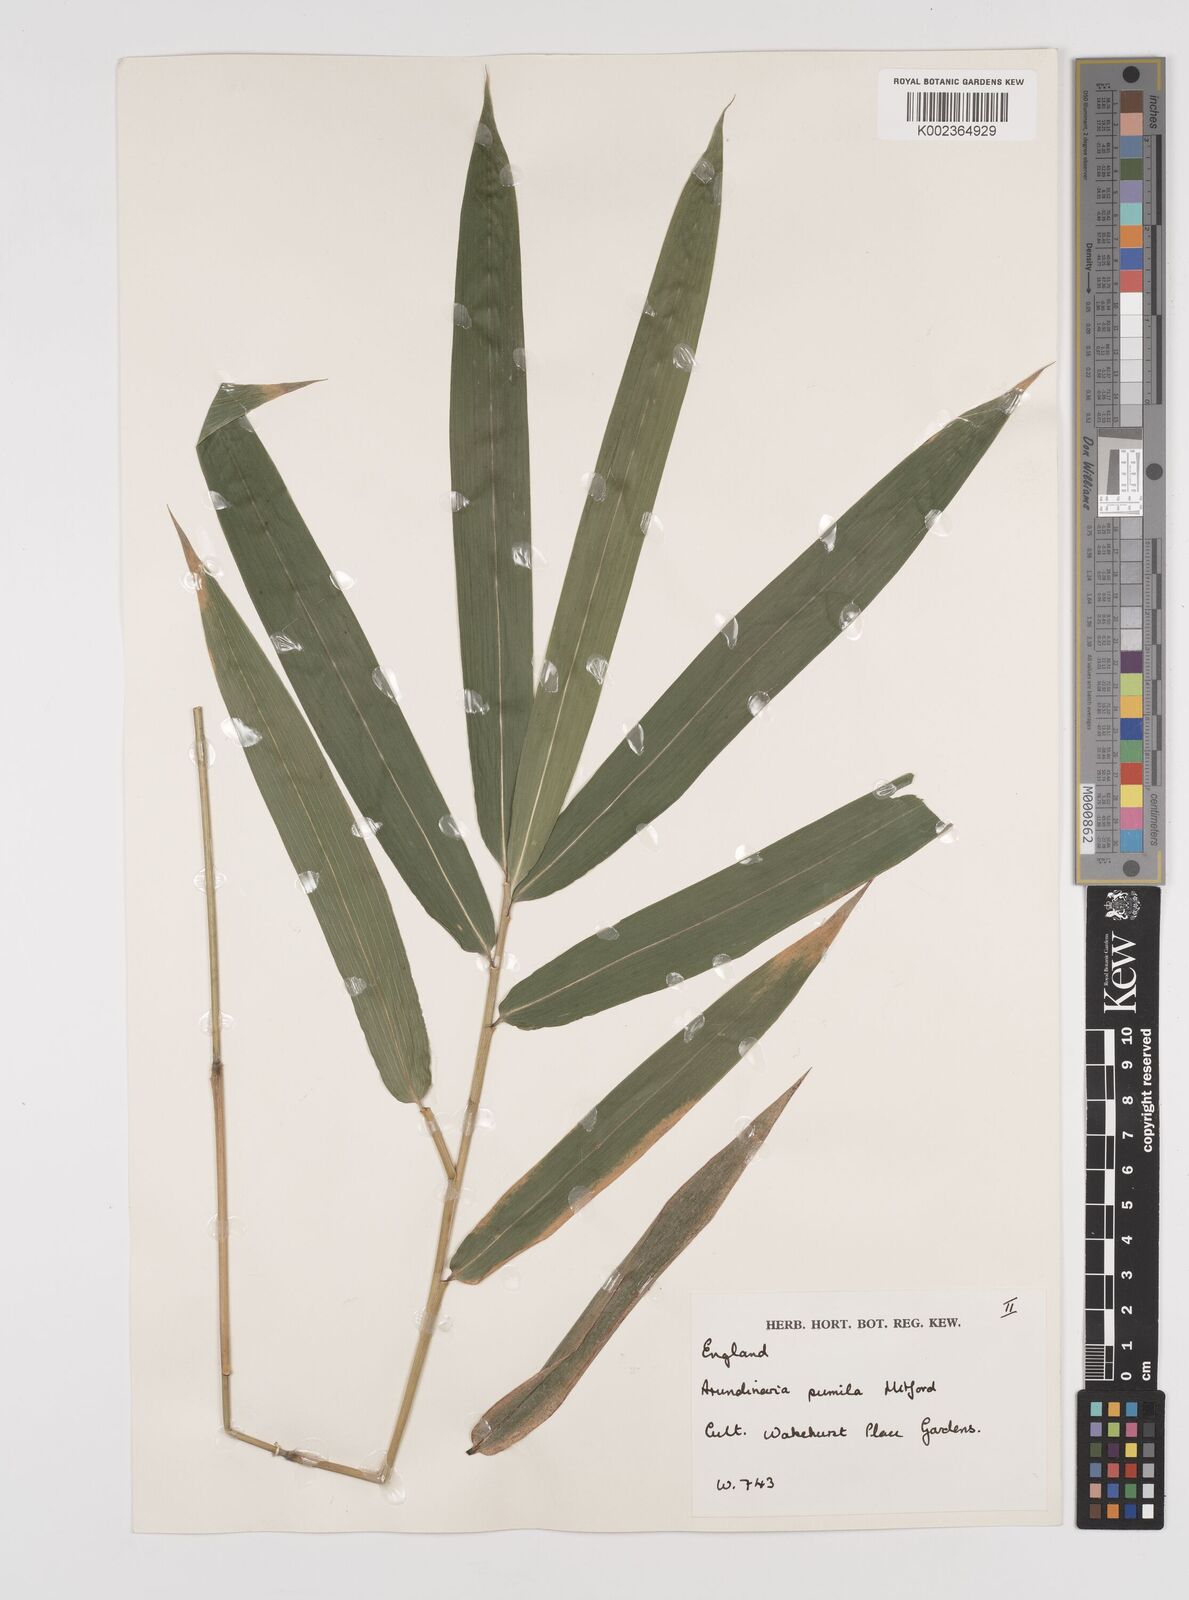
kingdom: Plantae
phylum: Tracheophyta
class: Liliopsida
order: Poales
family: Poaceae
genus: Pleioblastus
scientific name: Pleioblastus argenteostriatus
